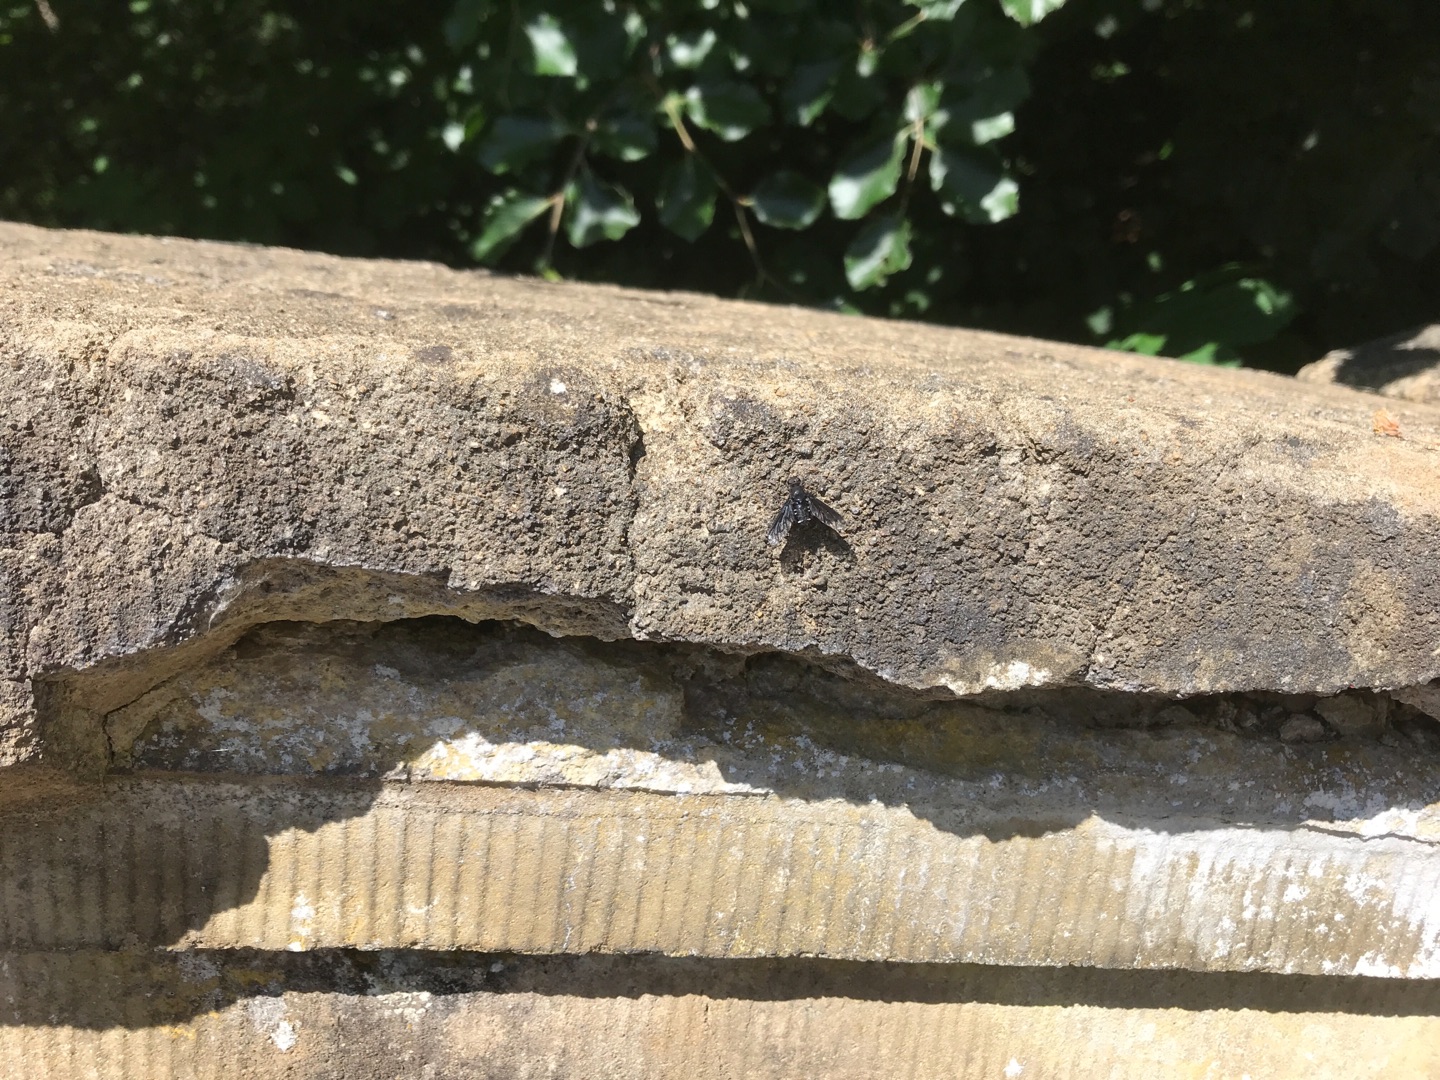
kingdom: Animalia
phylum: Arthropoda
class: Insecta
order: Diptera
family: Bombyliidae
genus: Anthrax
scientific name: Anthrax anthrax
